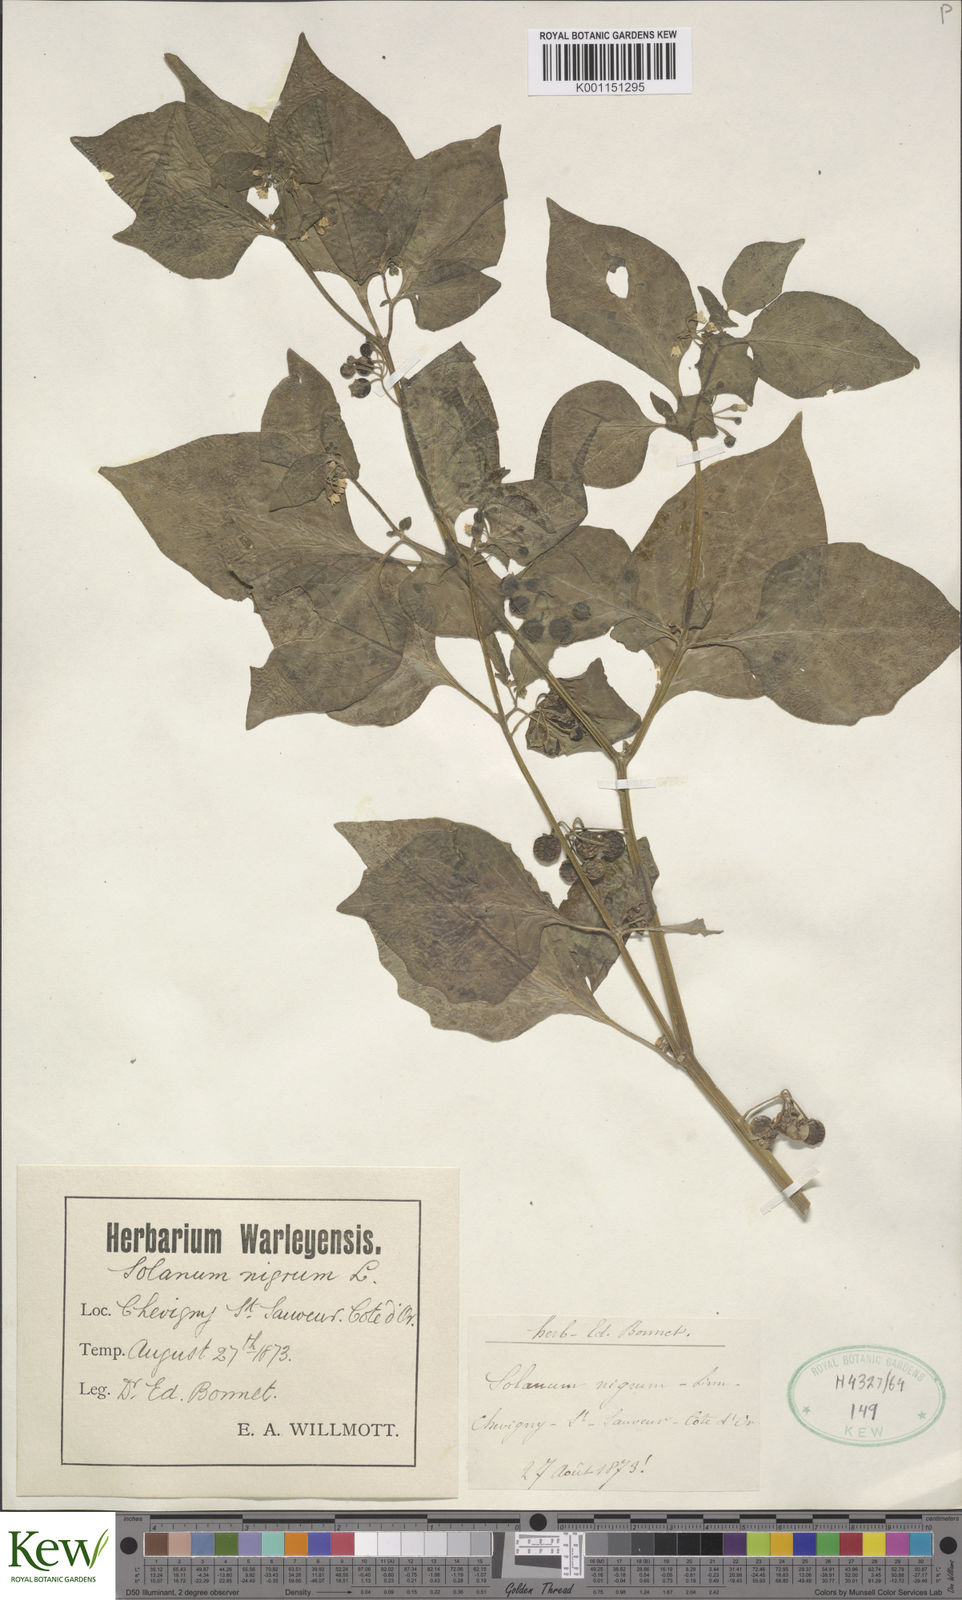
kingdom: Plantae
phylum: Tracheophyta
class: Magnoliopsida
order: Solanales
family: Solanaceae
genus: Solanum
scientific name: Solanum nigrum
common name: Black nightshade
